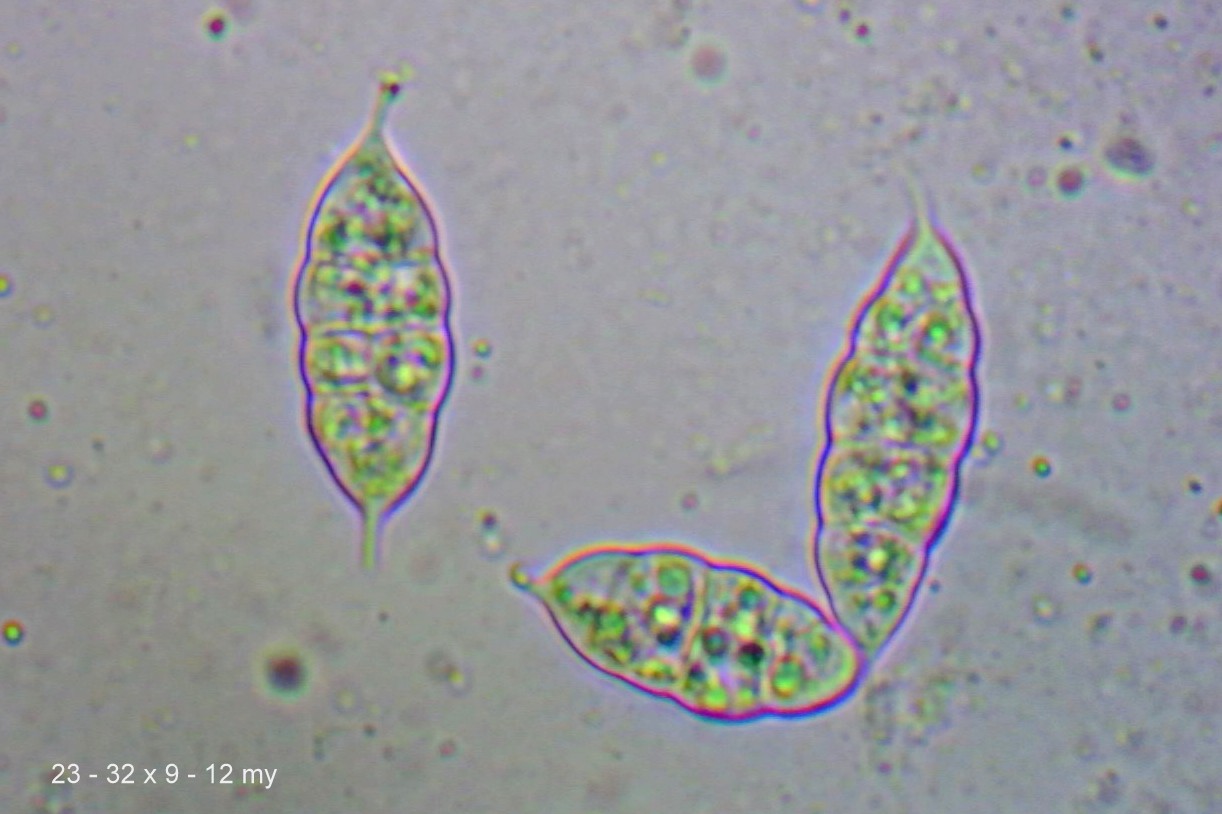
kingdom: Fungi
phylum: Ascomycota
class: Sordariomycetes
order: Hypocreales
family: Bionectriaceae
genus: Paranectria
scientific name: Paranectria oropensis
